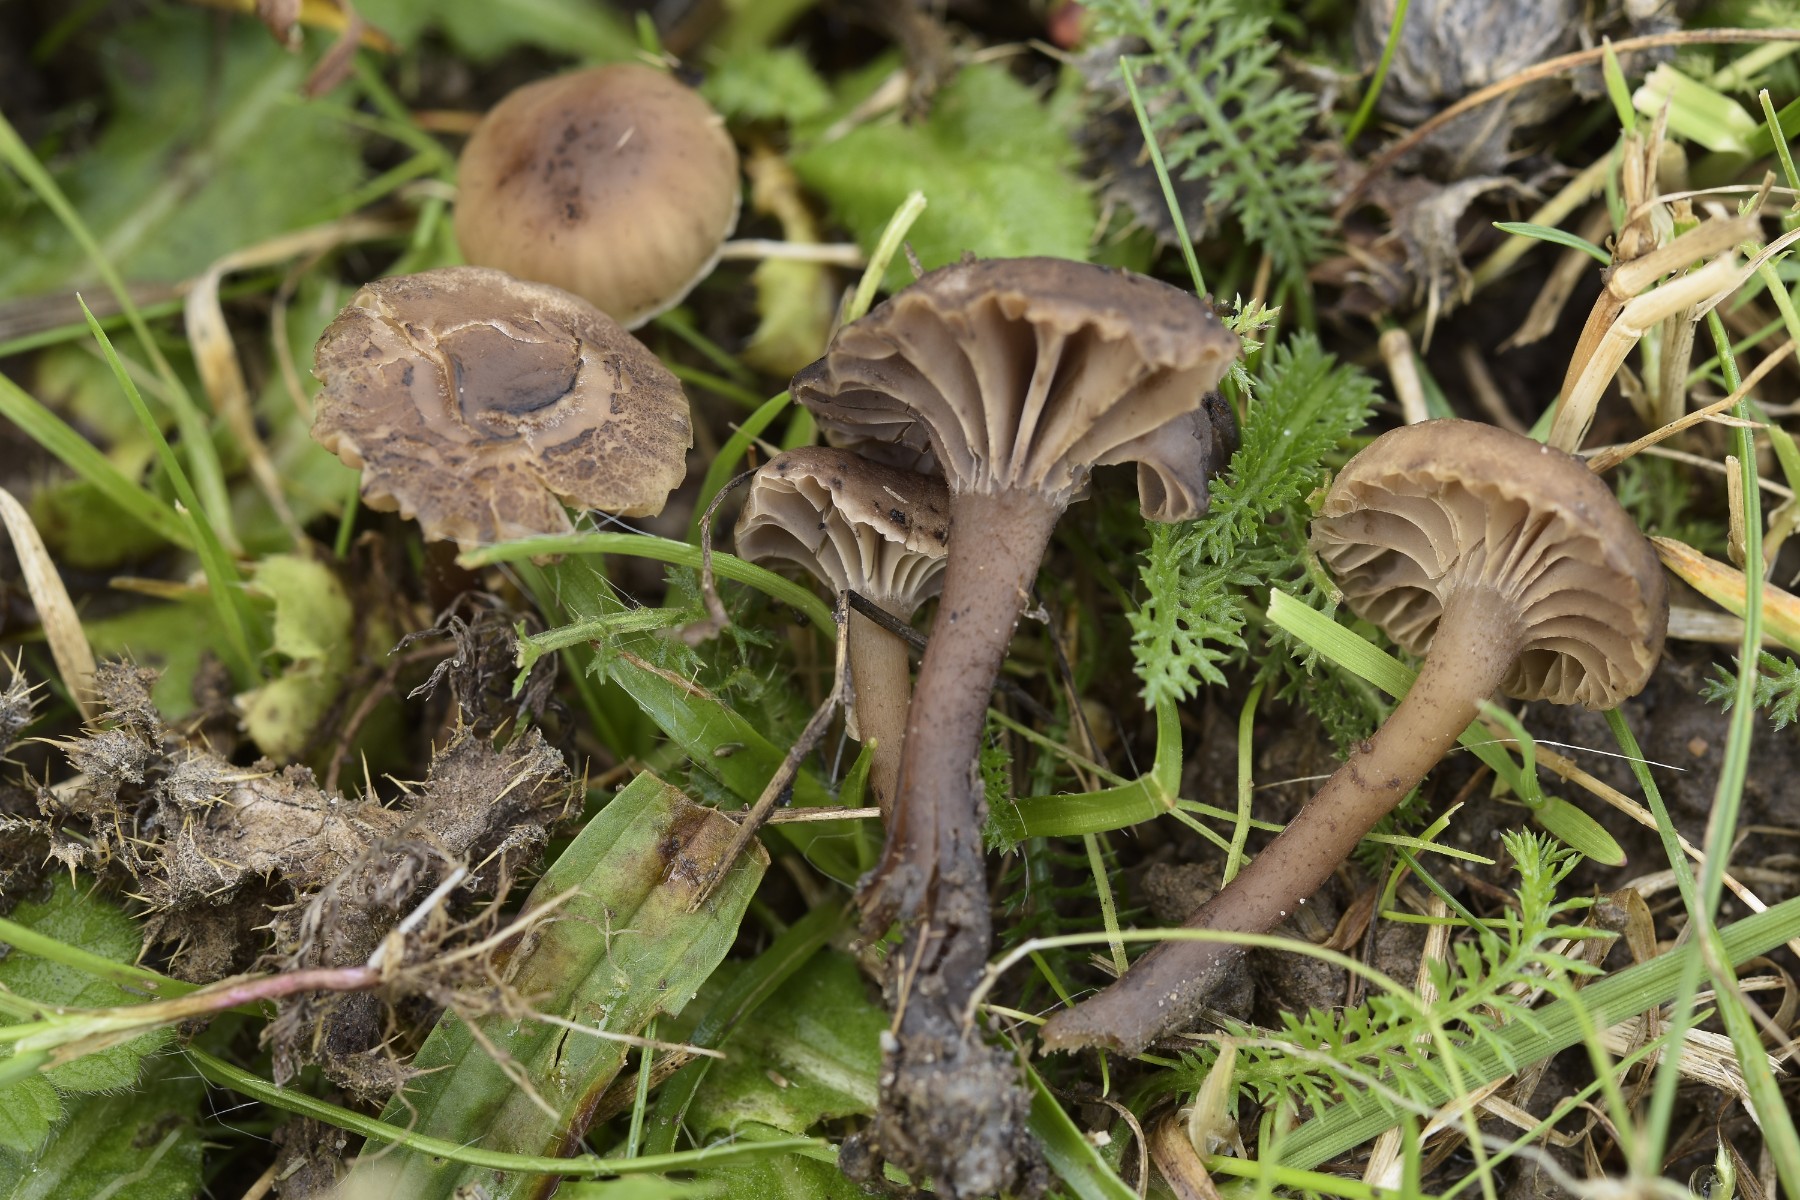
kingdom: Fungi
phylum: Basidiomycota
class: Agaricomycetes
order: Agaricales
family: Clavariaceae
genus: Hodophilus
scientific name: Hodophilus foetens
